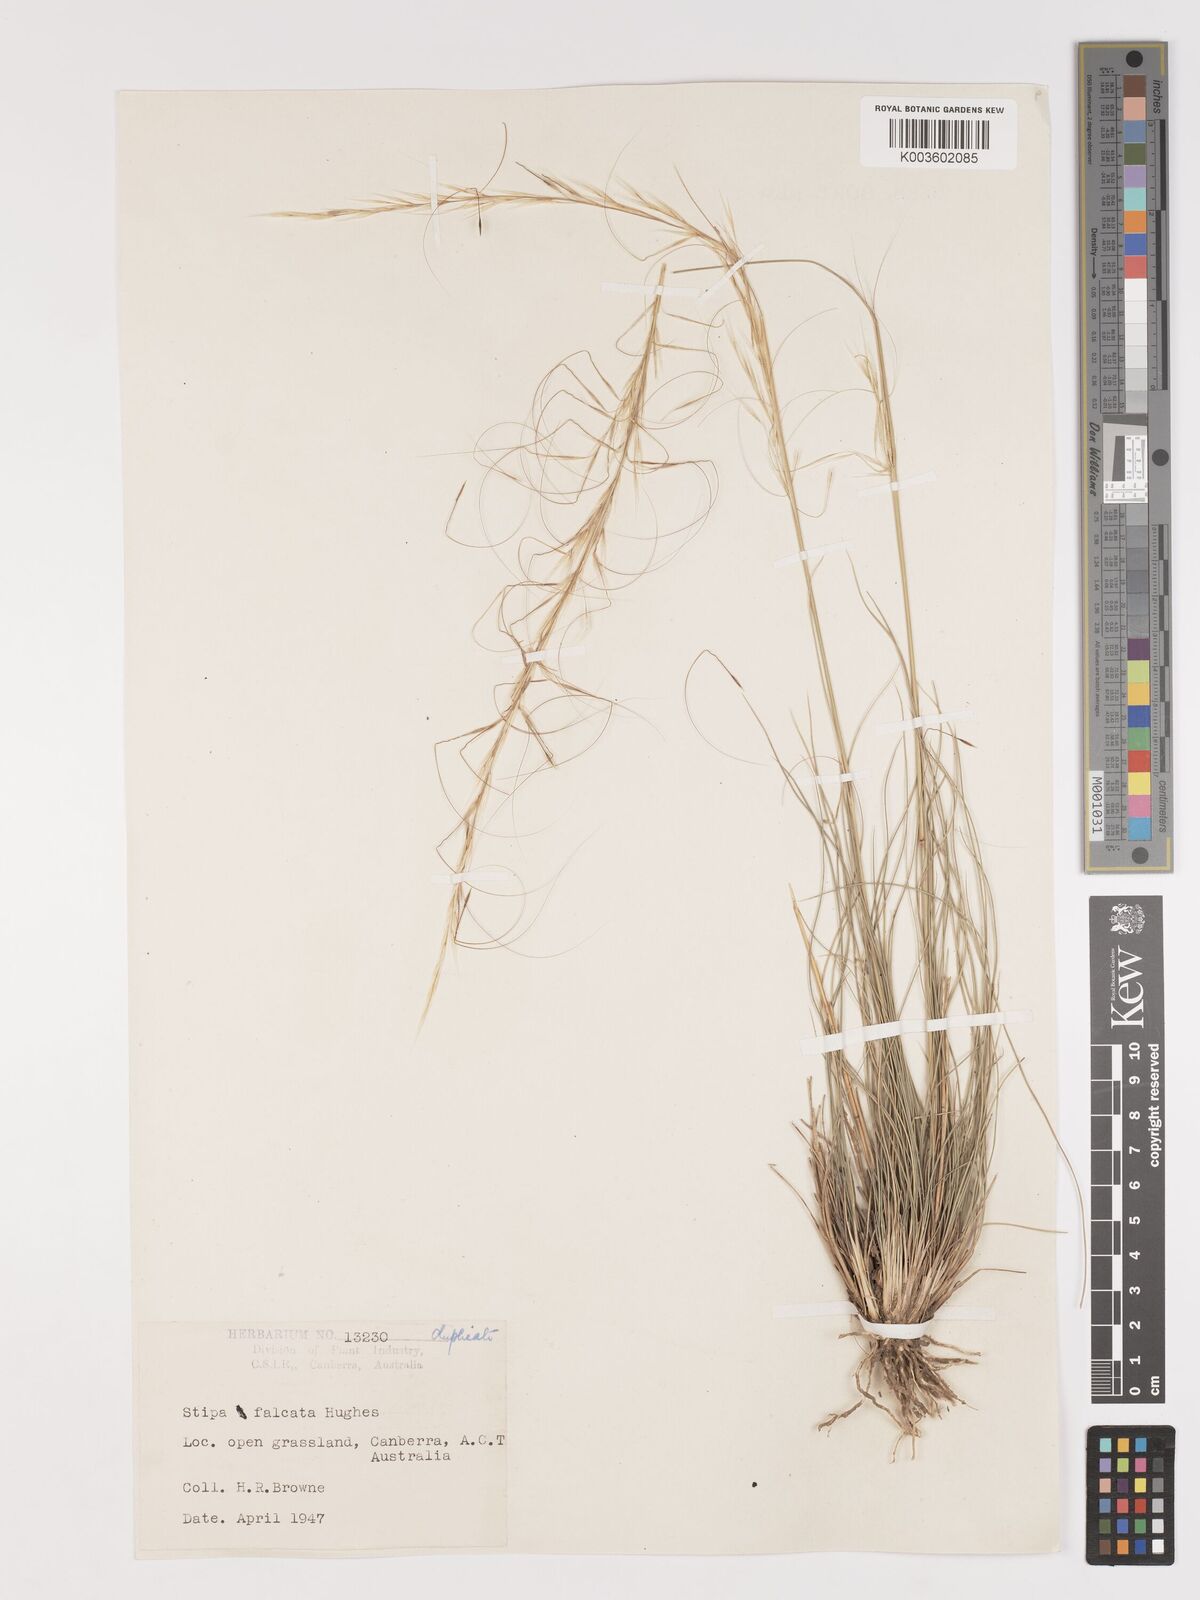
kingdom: Plantae
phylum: Tracheophyta
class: Liliopsida
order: Poales
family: Poaceae
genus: Austrostipa
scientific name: Austrostipa scabra
